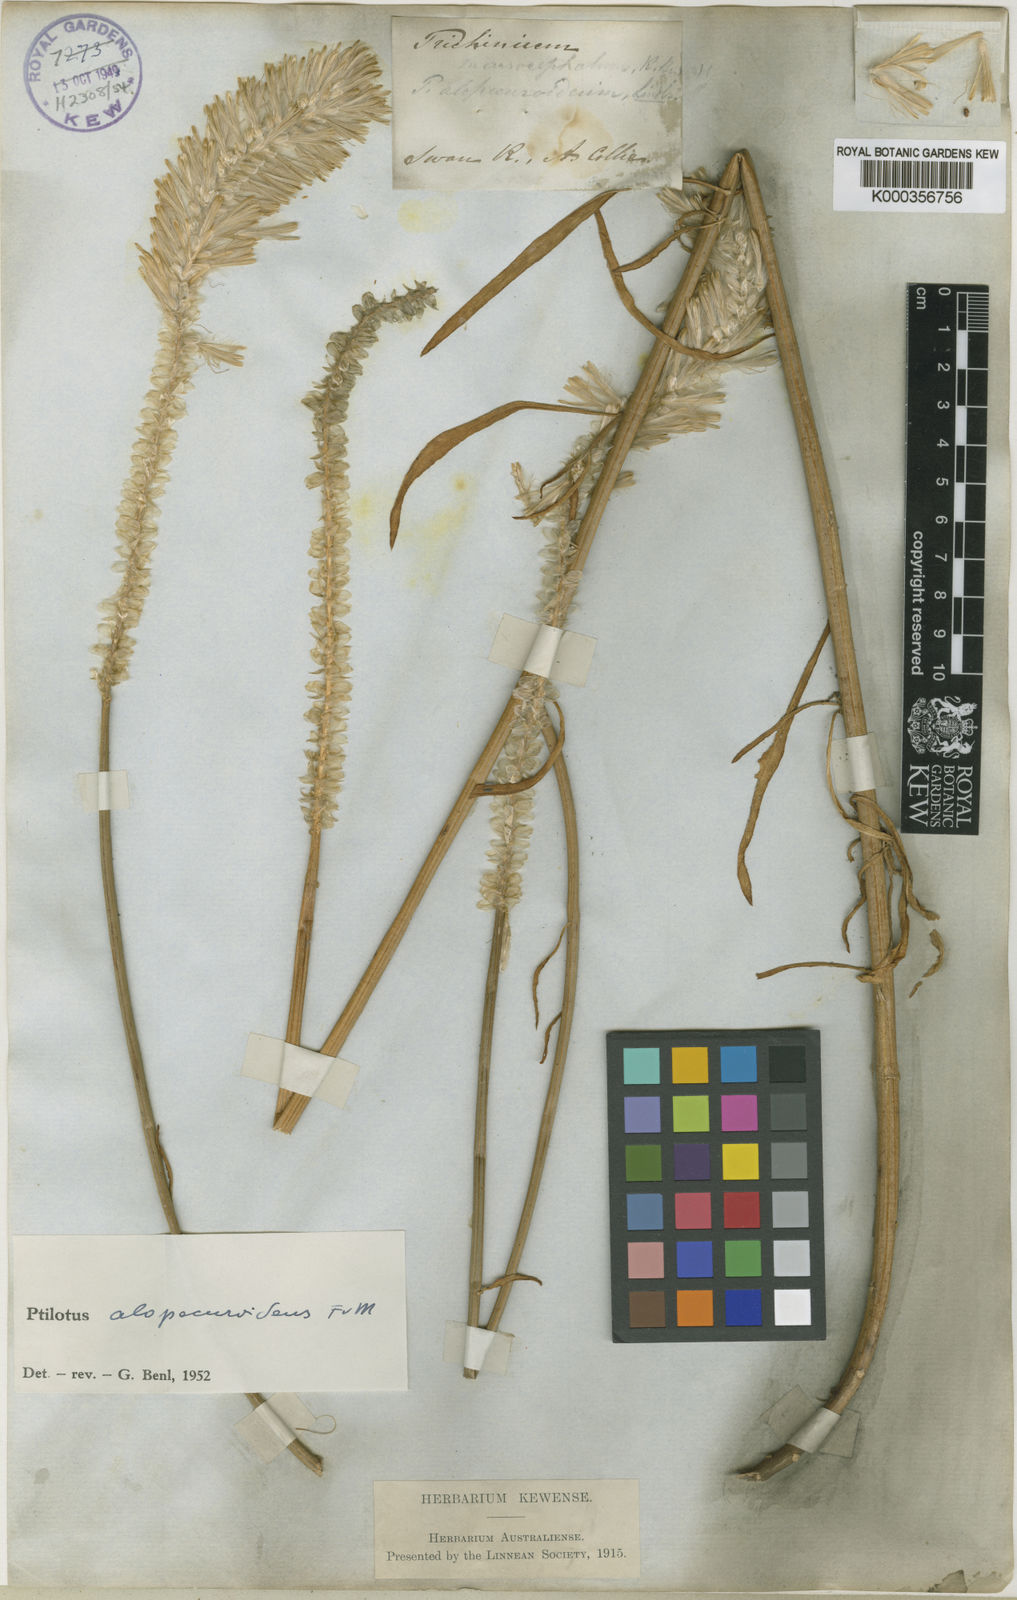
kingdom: Plantae
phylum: Tracheophyta
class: Magnoliopsida
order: Caryophyllales
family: Amaranthaceae
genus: Ptilotus
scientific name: Ptilotus polystachyus
